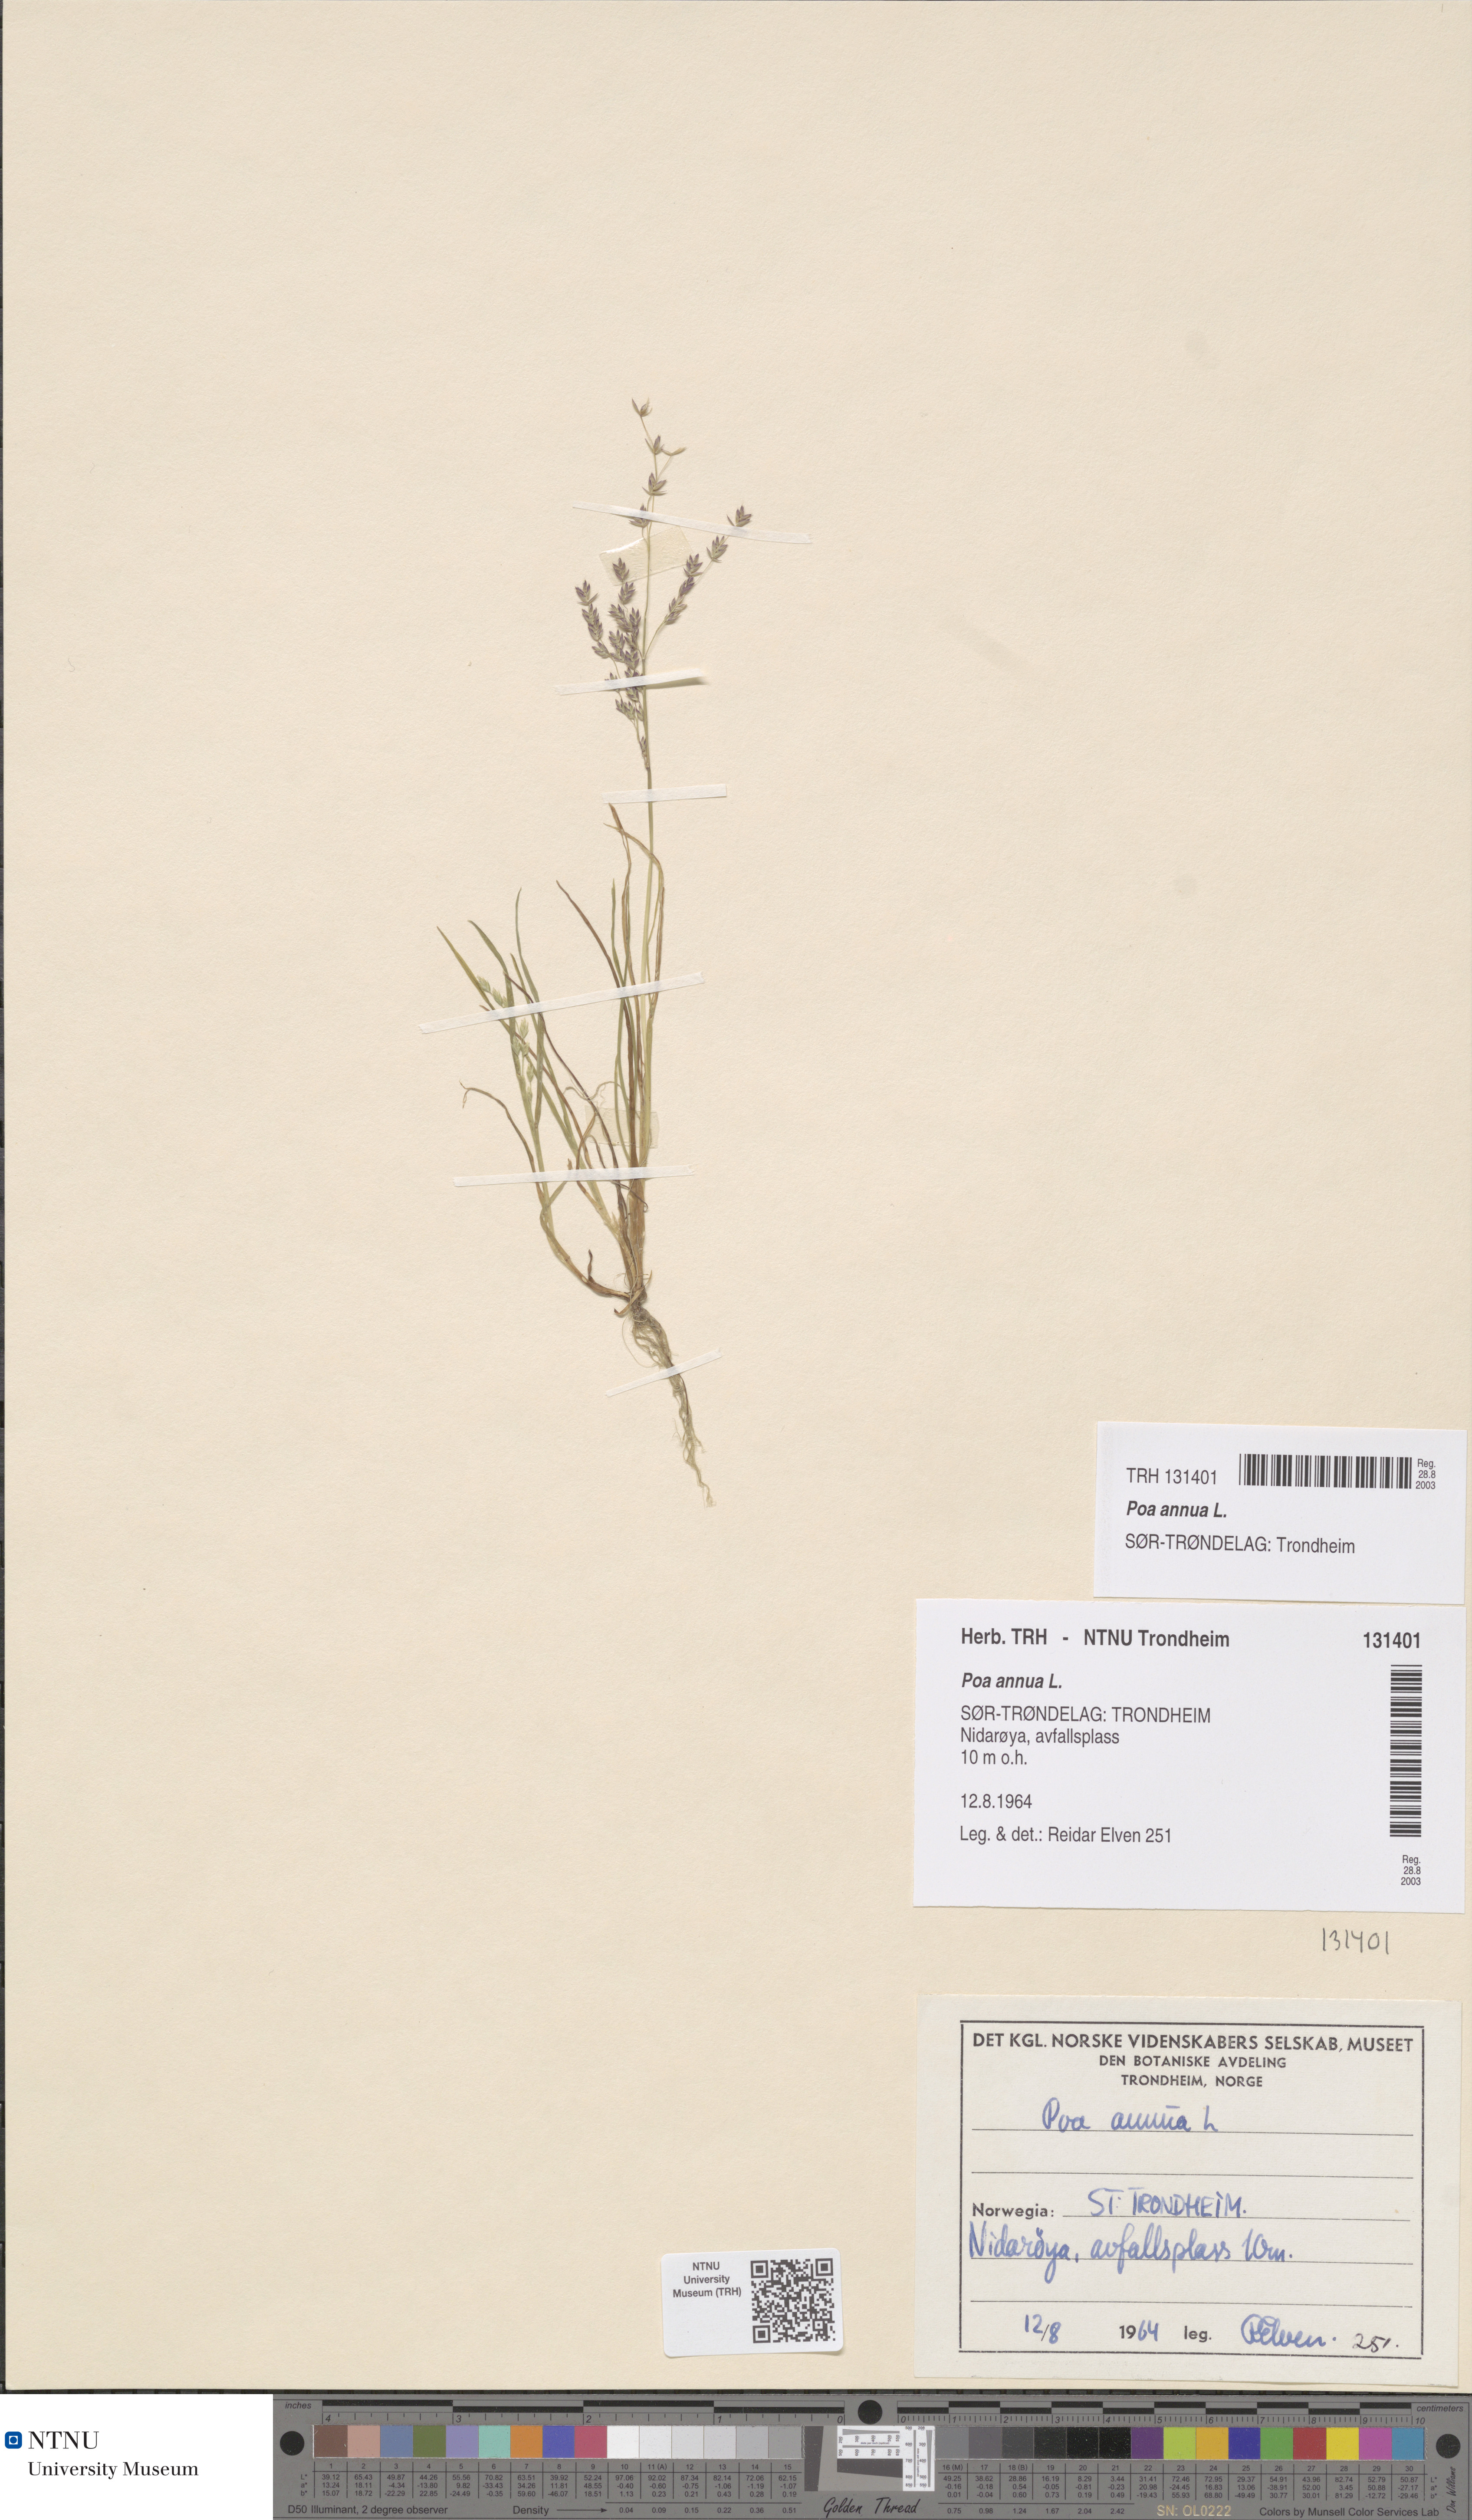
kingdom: Plantae
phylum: Tracheophyta
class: Liliopsida
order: Poales
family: Poaceae
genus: Poa
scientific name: Poa annua
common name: Annual bluegrass
